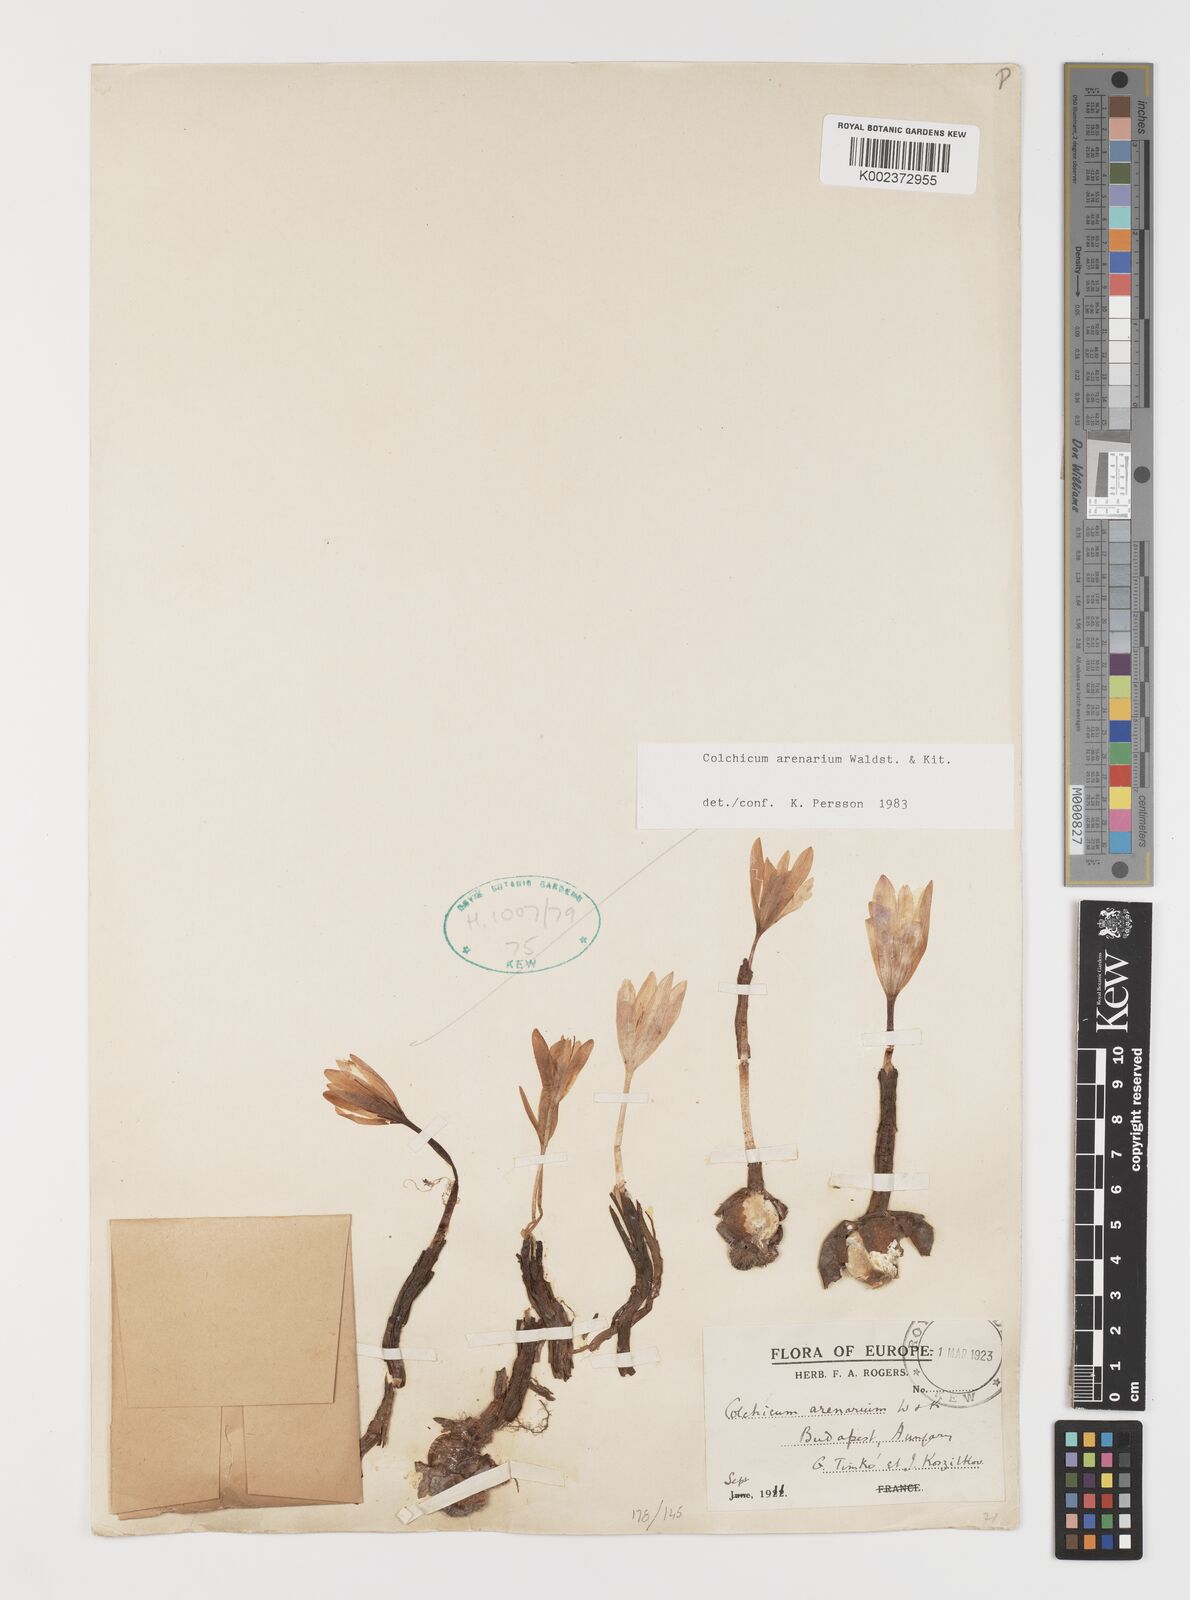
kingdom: Plantae
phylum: Tracheophyta
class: Liliopsida
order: Liliales
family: Colchicaceae
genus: Colchicum
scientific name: Colchicum arenarium
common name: Sand saffron
